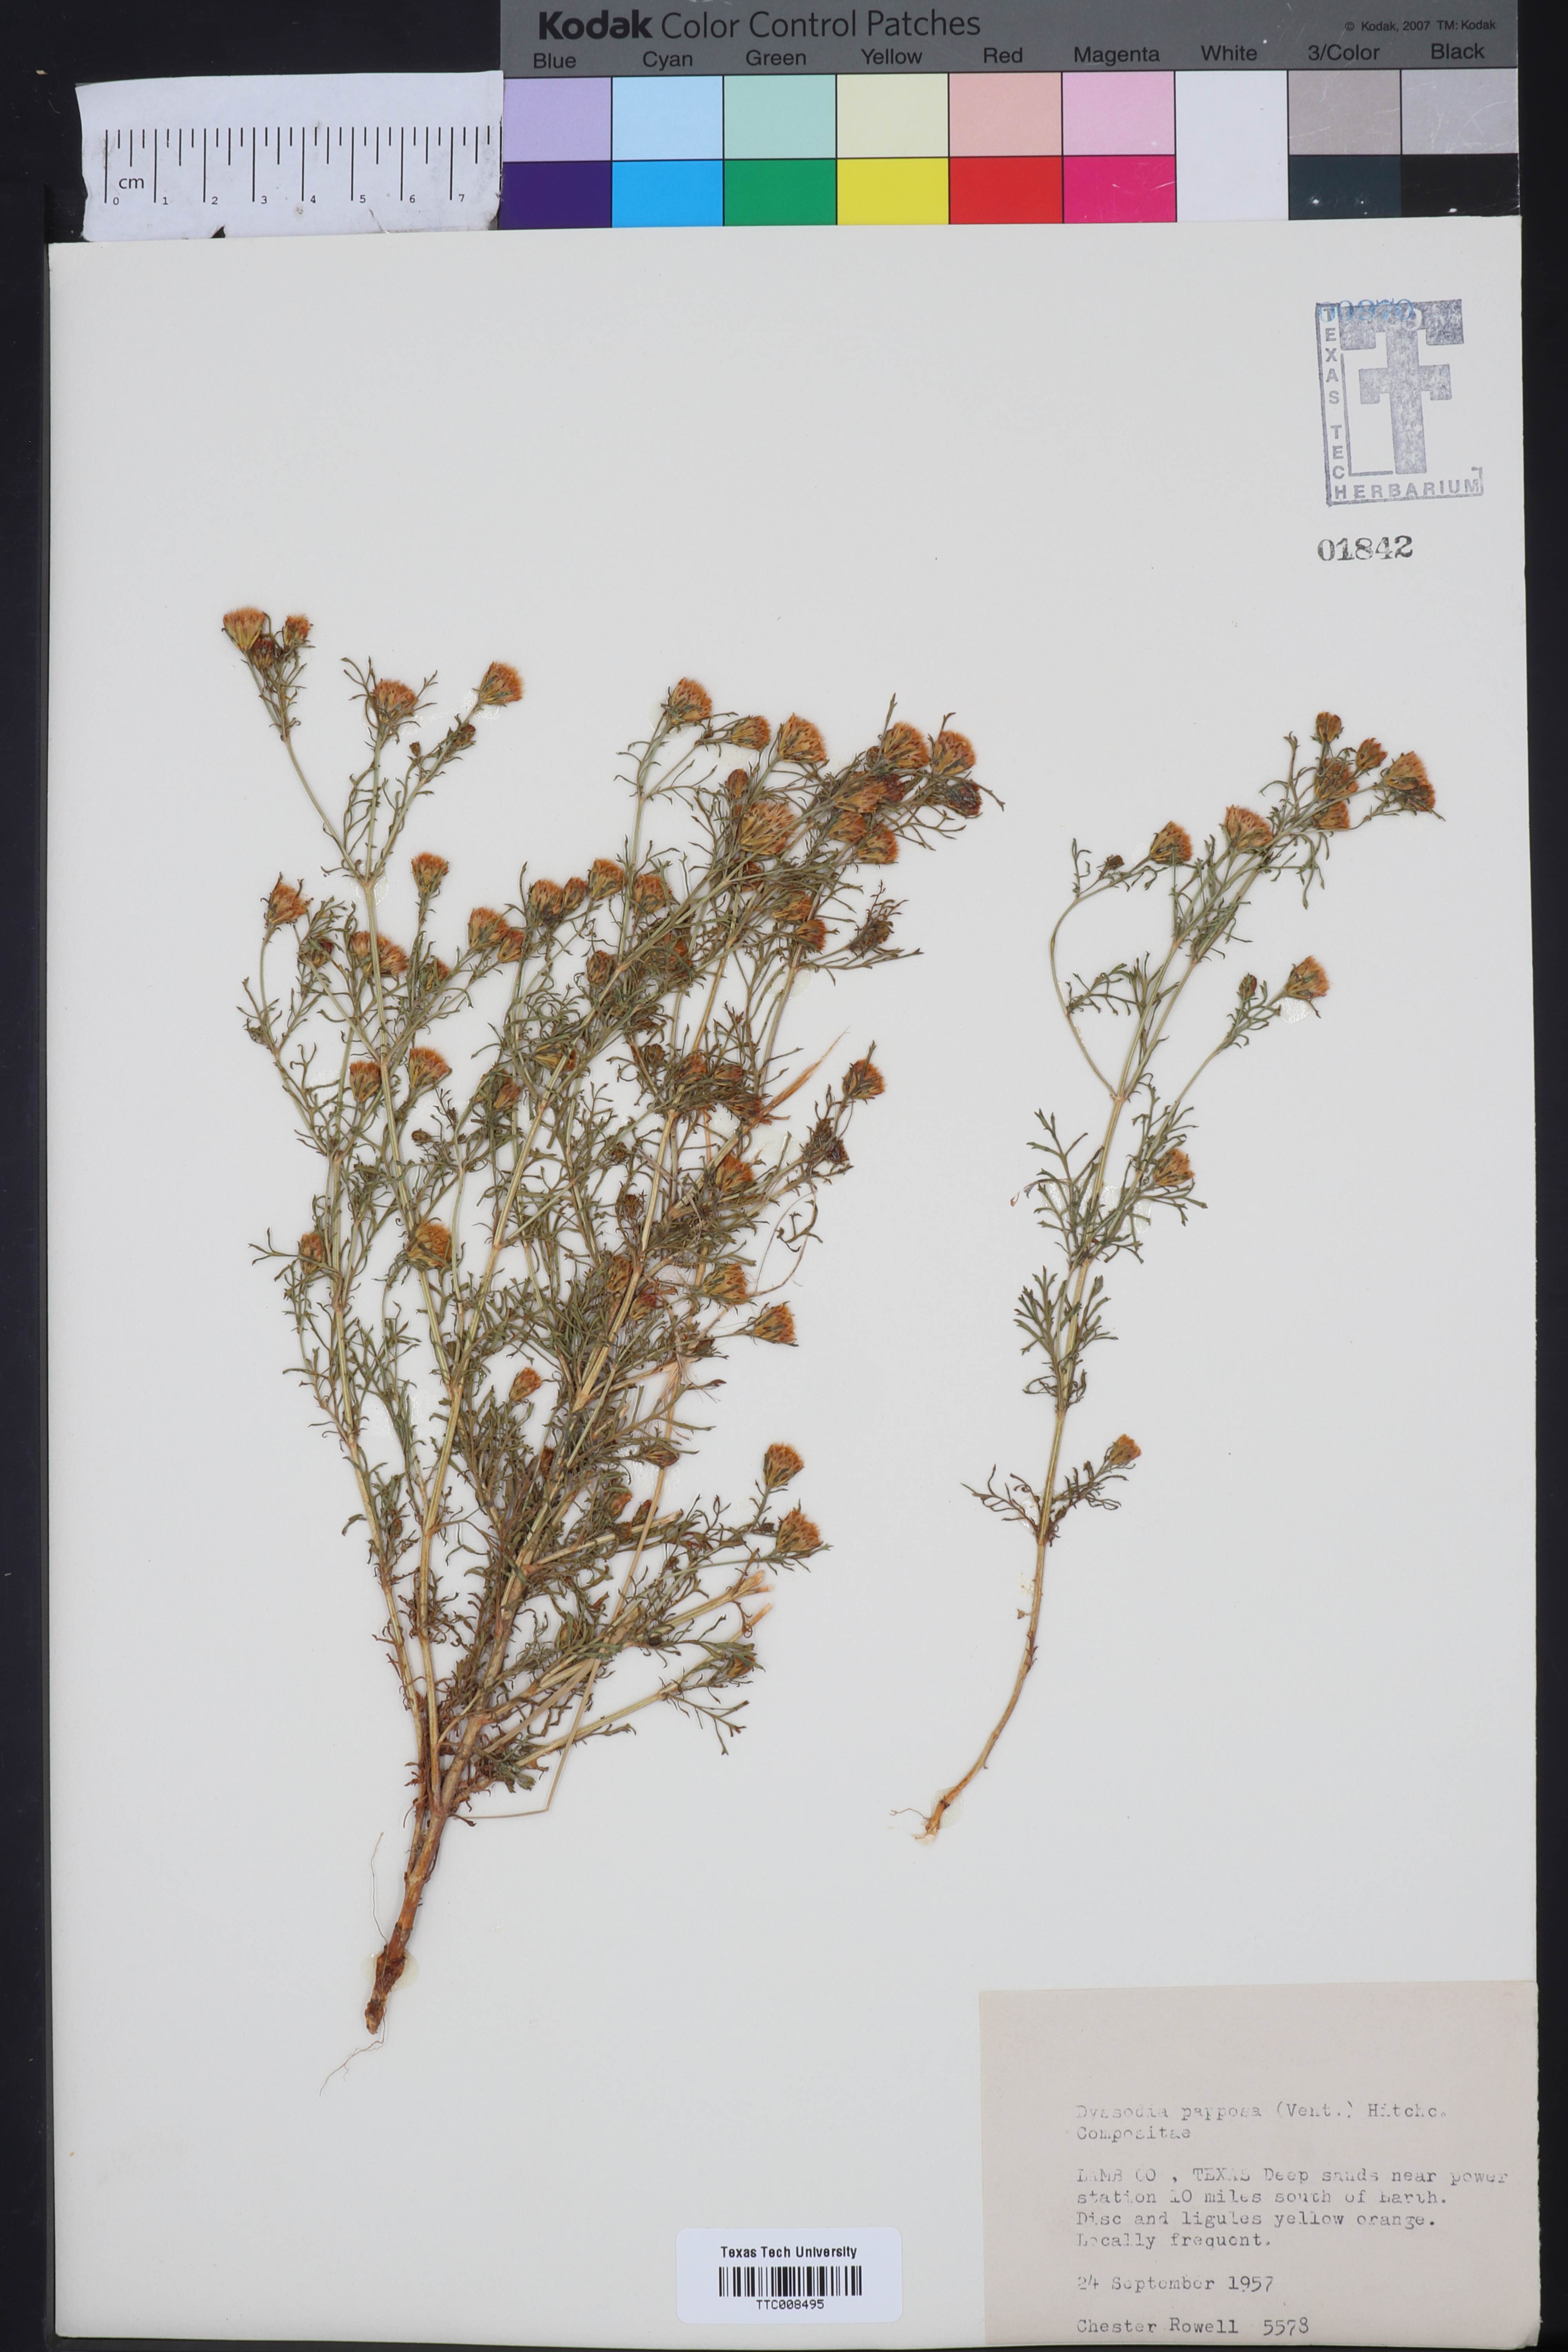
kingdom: Plantae
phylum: Tracheophyta
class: Magnoliopsida
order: Asterales
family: Asteraceae
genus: Dyssodia
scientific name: Dyssodia papposa
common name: Dogweed
